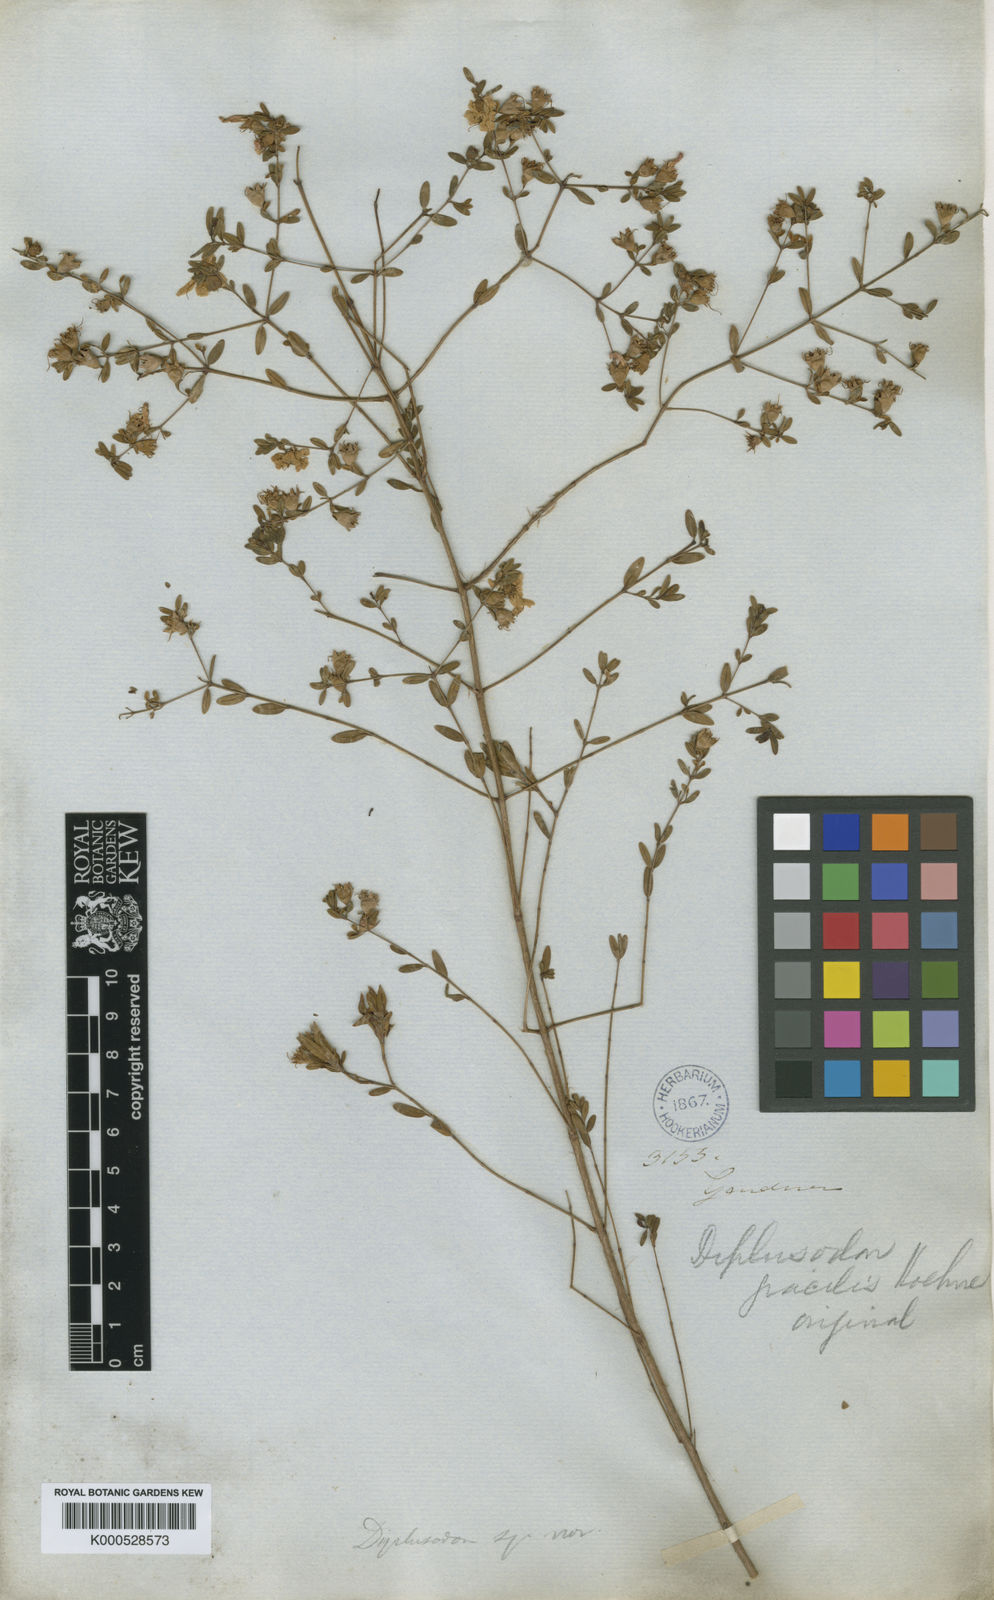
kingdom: Plantae
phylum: Tracheophyta
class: Magnoliopsida
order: Myrtales
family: Lythraceae
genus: Diplusodon
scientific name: Diplusodon gracilis
